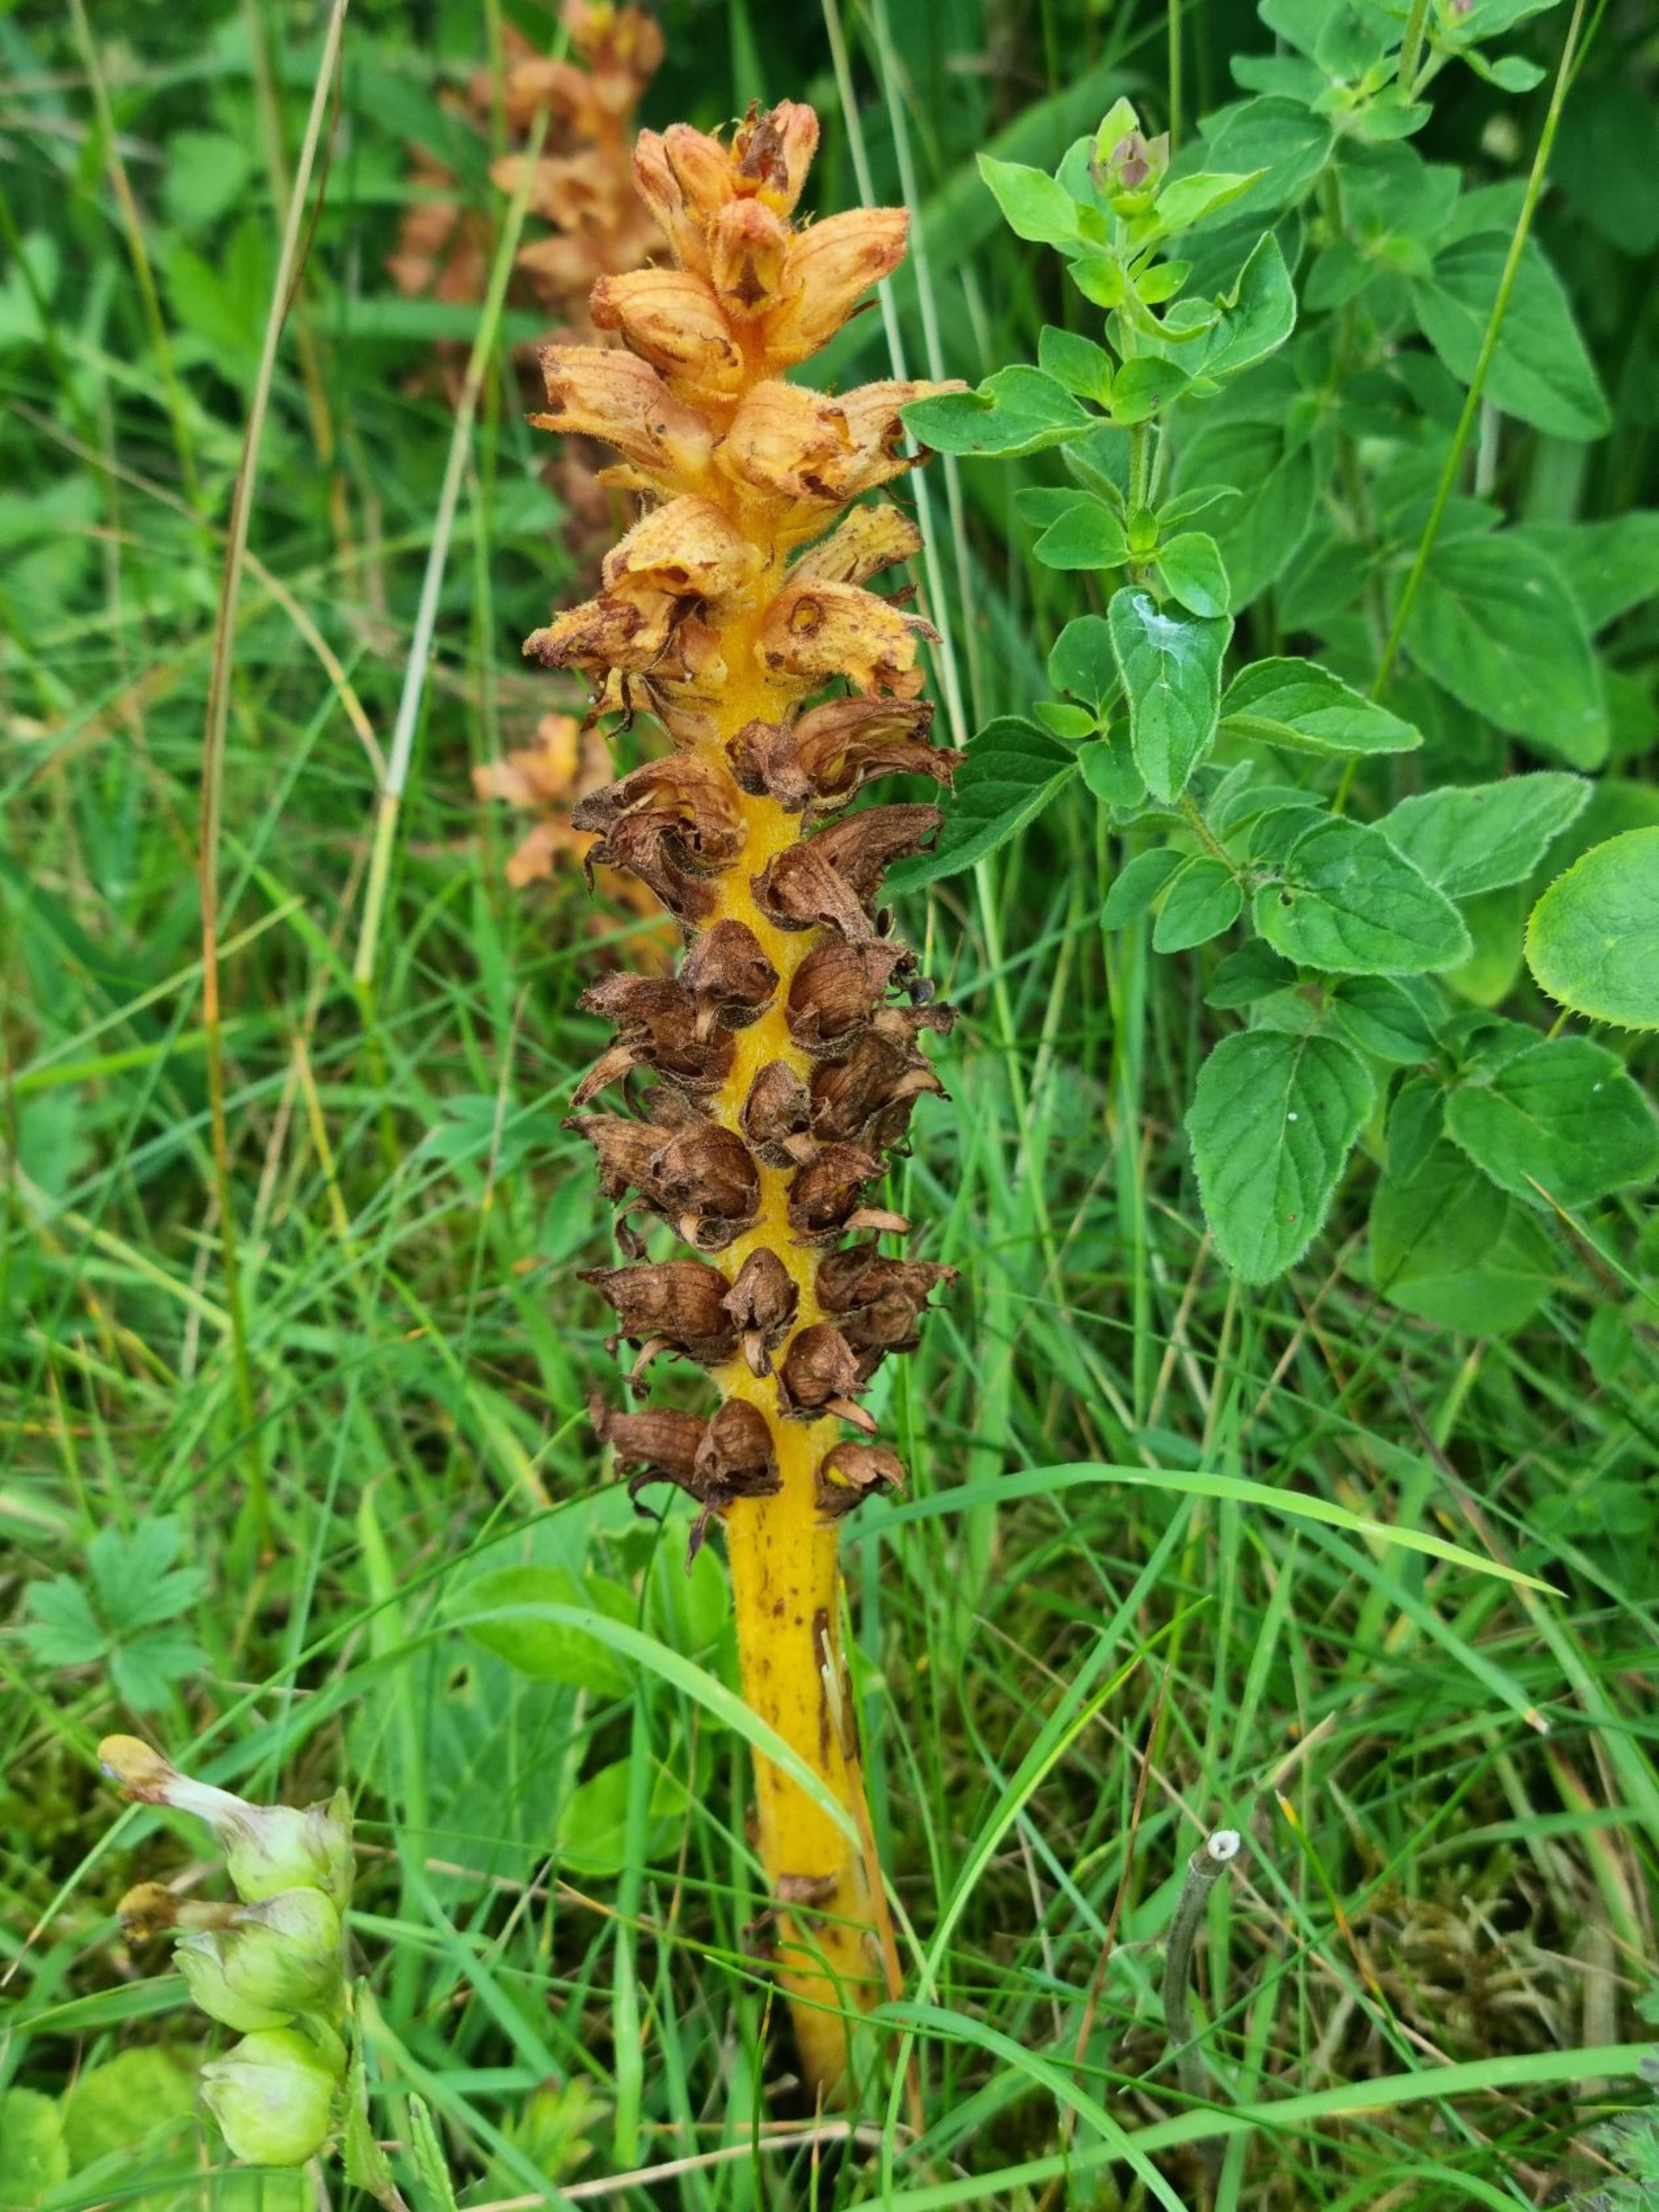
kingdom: Plantae
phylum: Tracheophyta
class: Magnoliopsida
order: Lamiales
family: Orobanchaceae
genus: Orobanche
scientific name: Orobanche lucorum
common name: Berberis-gyvelkvæler
